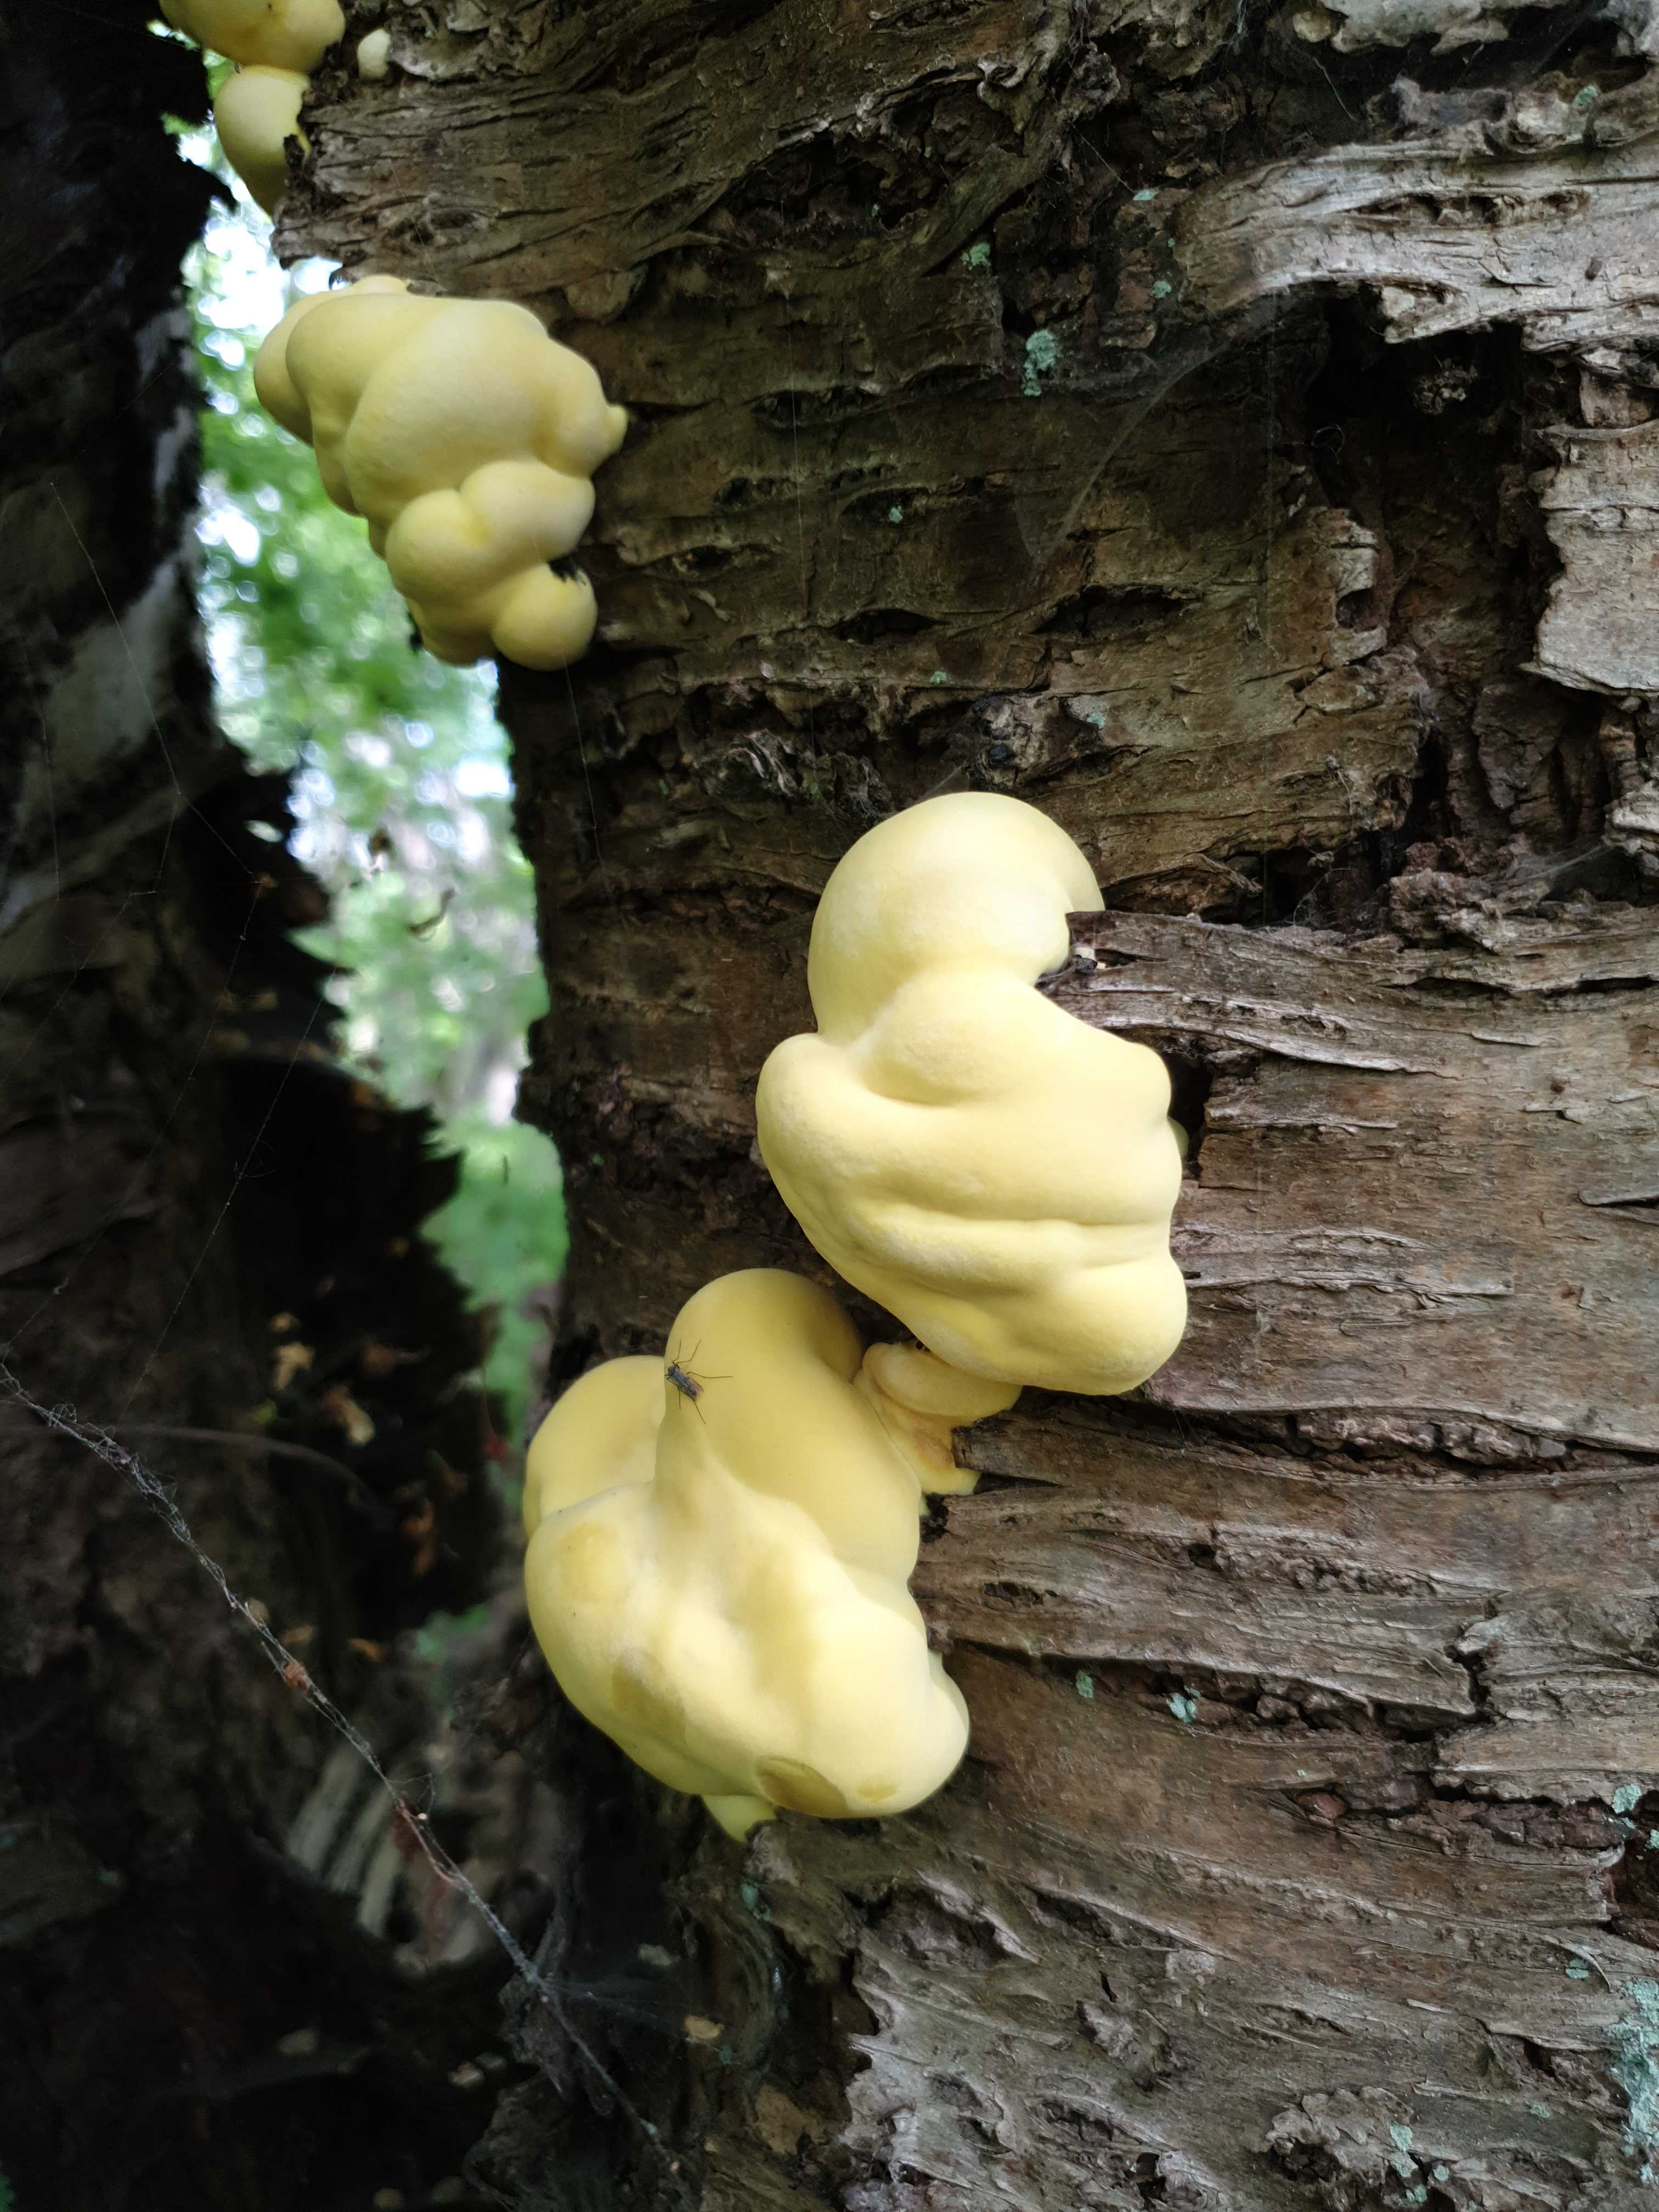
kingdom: Fungi
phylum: Basidiomycota
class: Agaricomycetes
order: Polyporales
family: Laetiporaceae
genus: Laetiporus
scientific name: Laetiporus sulphureus
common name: svovlporesvamp
